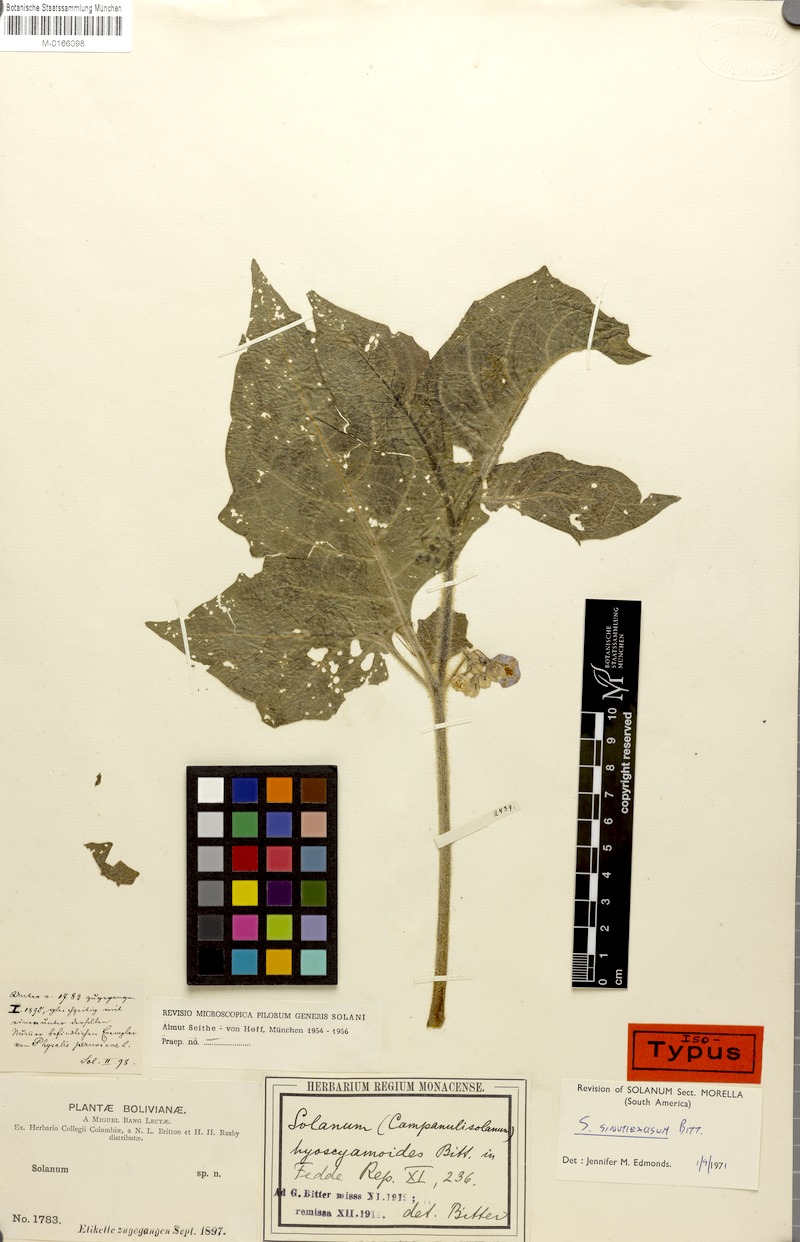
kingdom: Plantae
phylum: Tracheophyta
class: Magnoliopsida
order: Solanales
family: Solanaceae
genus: Solanum
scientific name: Solanum sinuatiexcisum
